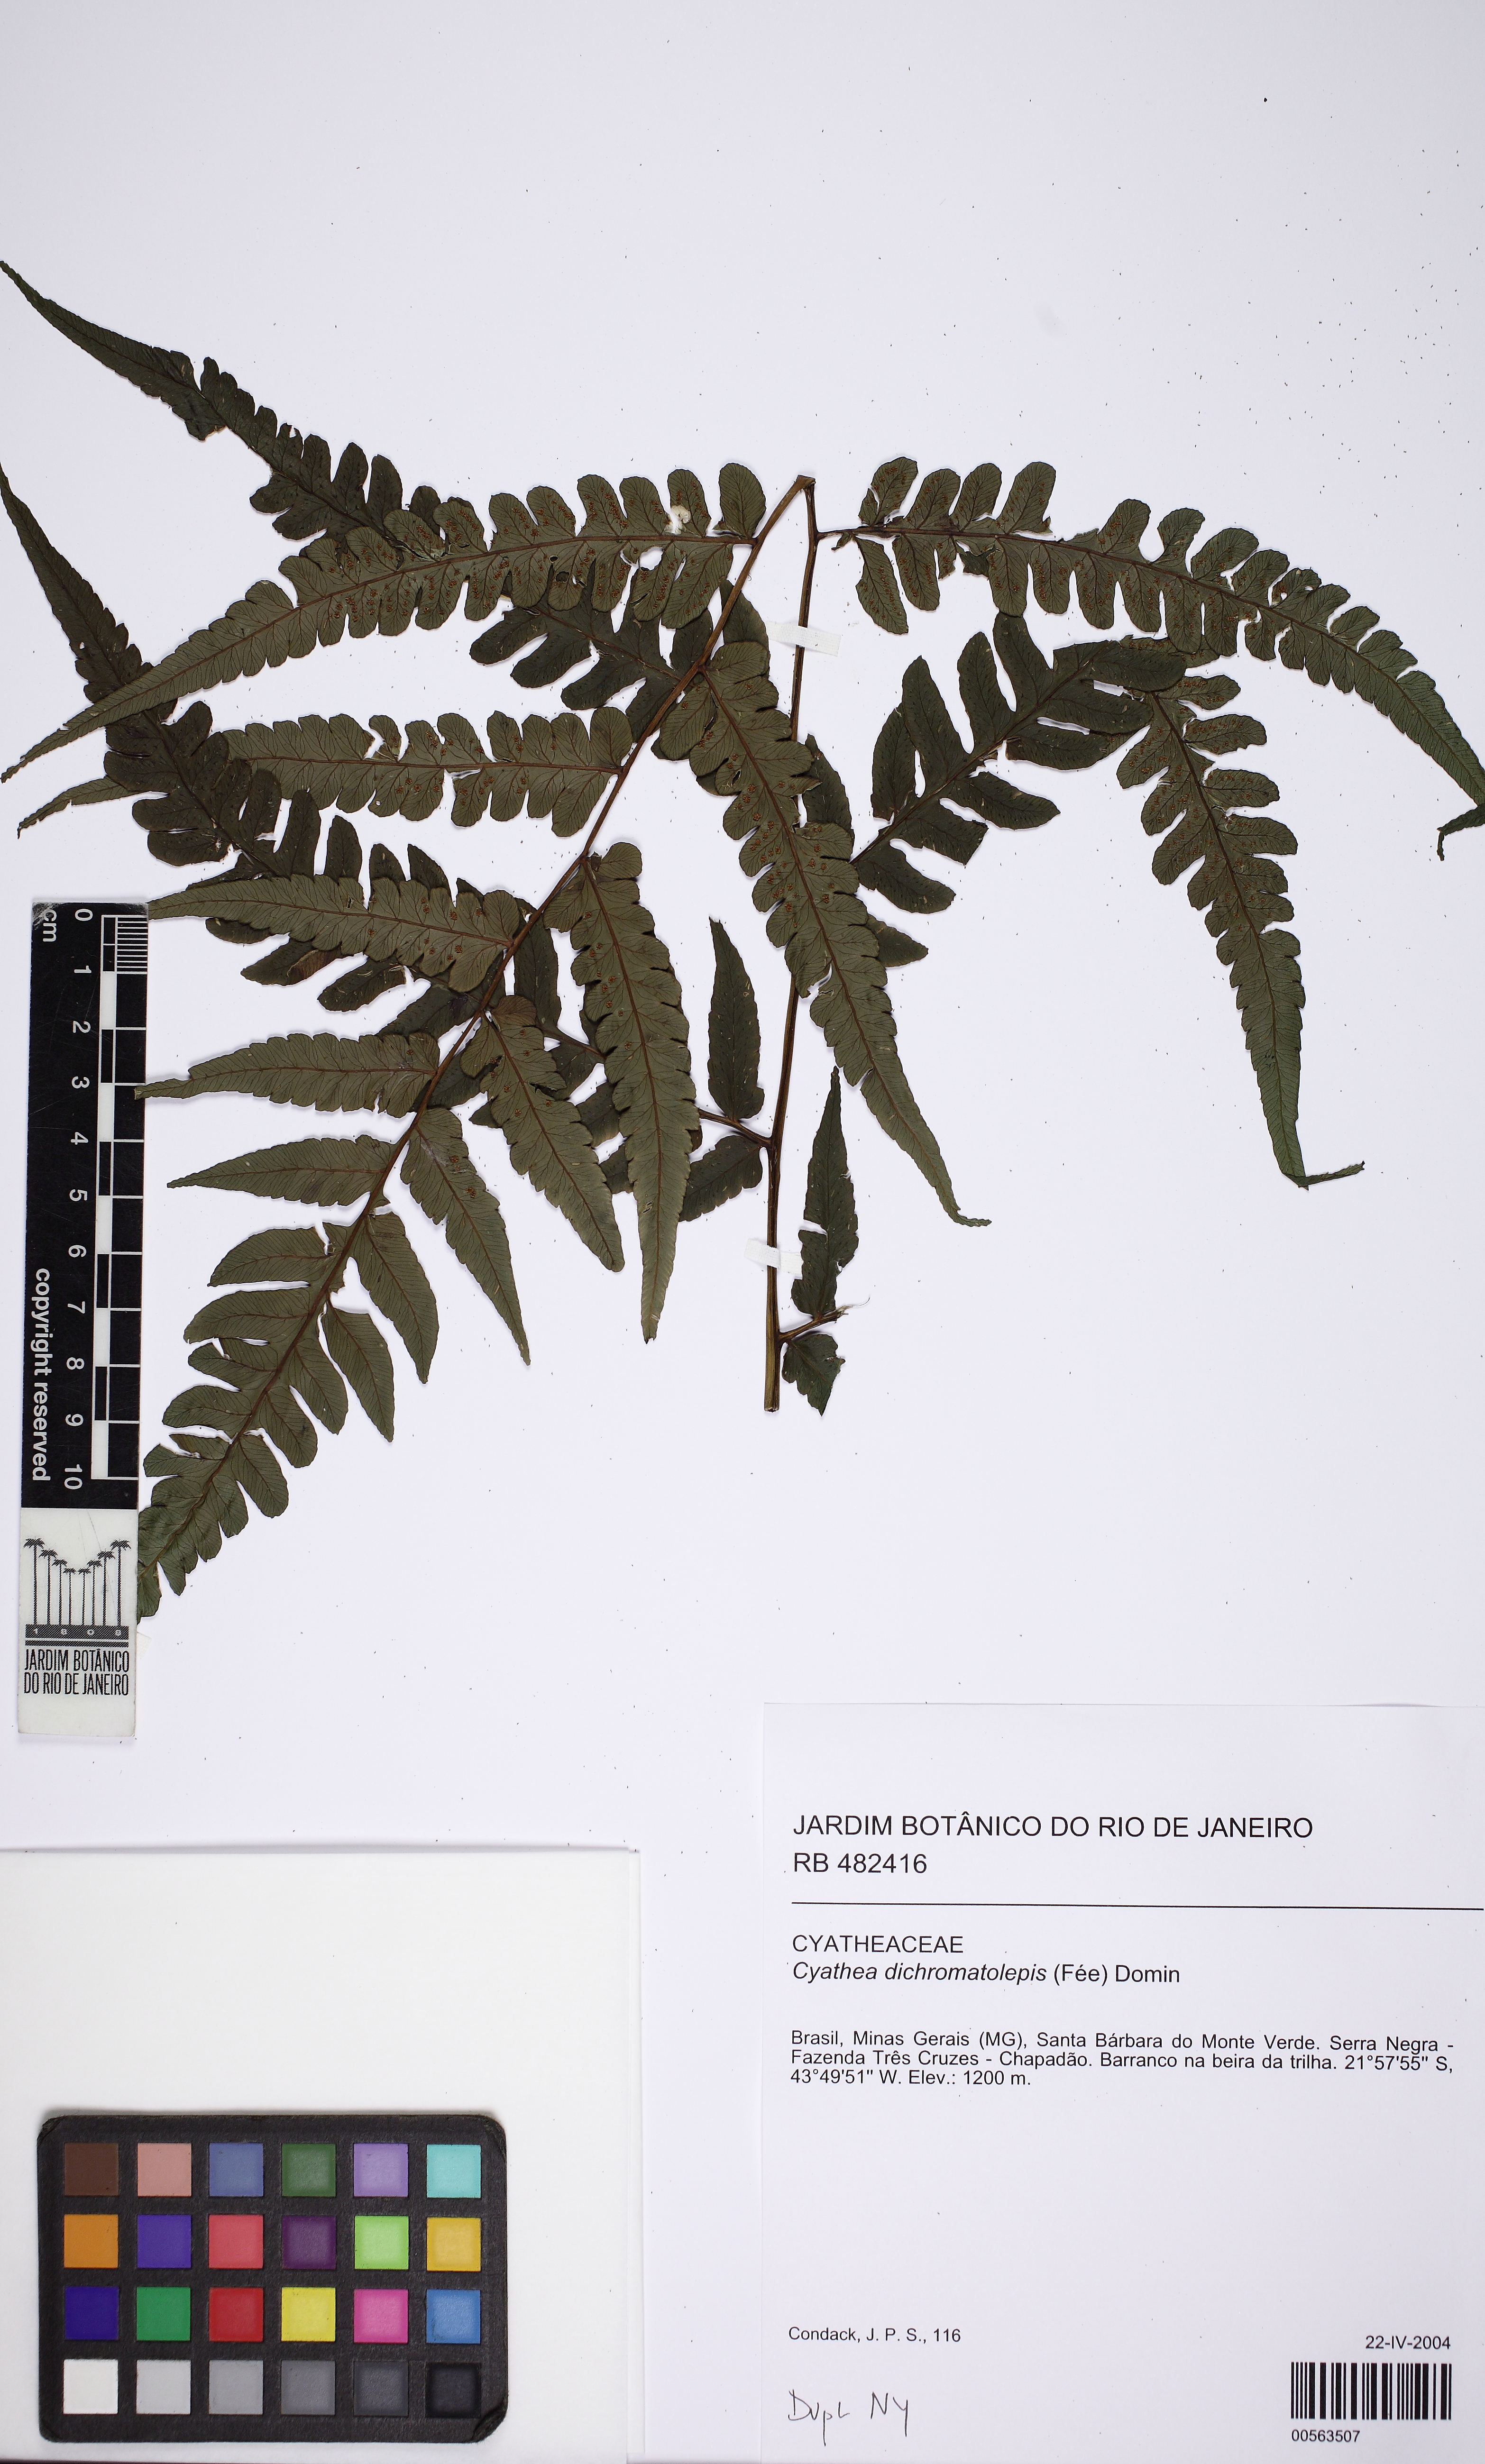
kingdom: Plantae
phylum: Tracheophyta
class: Polypodiopsida
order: Cyatheales
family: Cyatheaceae
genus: Cyathea
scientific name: Cyathea dichromatolepis
